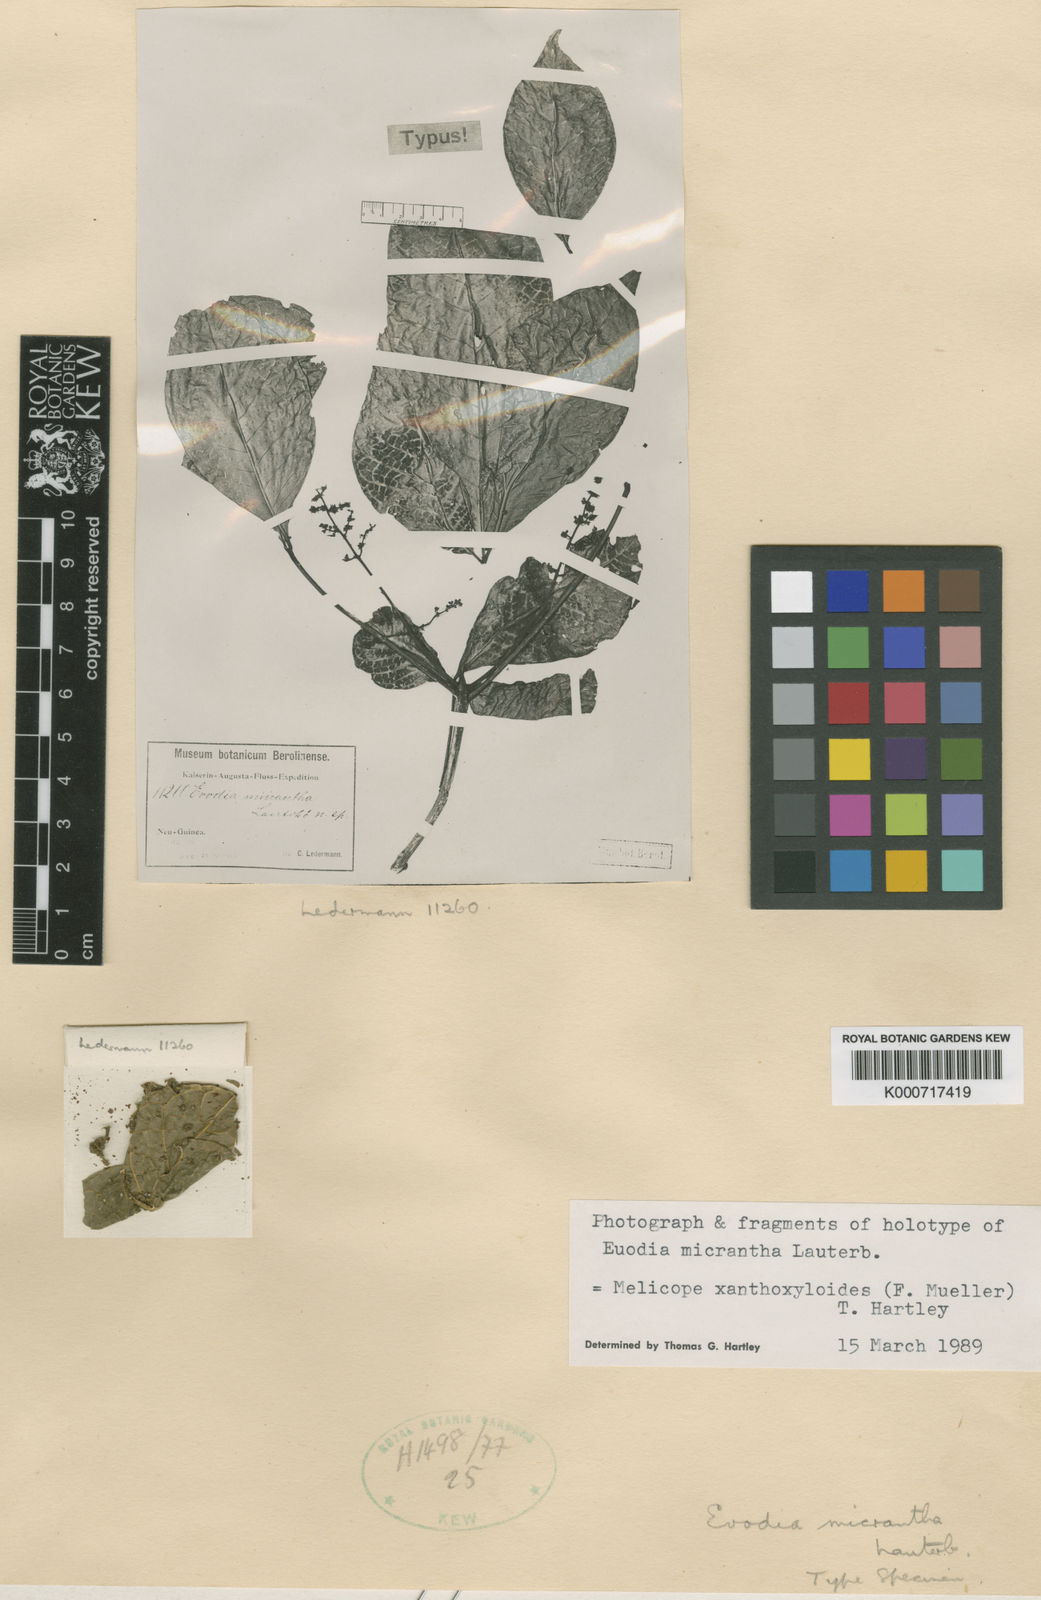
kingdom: Plantae
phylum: Tracheophyta
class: Magnoliopsida
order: Sapindales
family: Rutaceae
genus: Melicope
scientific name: Melicope xanthoxyloides
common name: Yellow evodia
